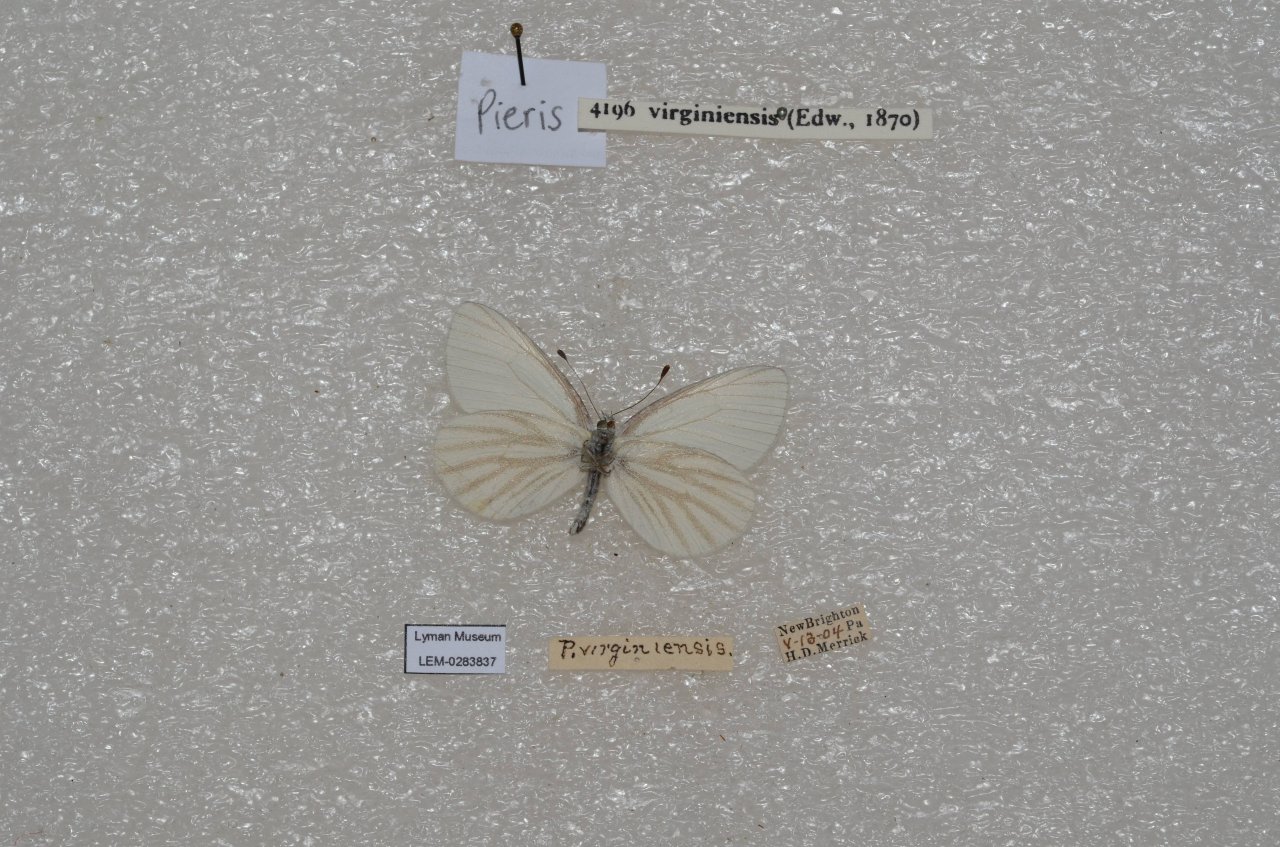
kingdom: Animalia
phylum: Arthropoda
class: Insecta
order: Lepidoptera
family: Pieridae
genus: Pieris
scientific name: Pieris virginiensis
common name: West Virginia White
